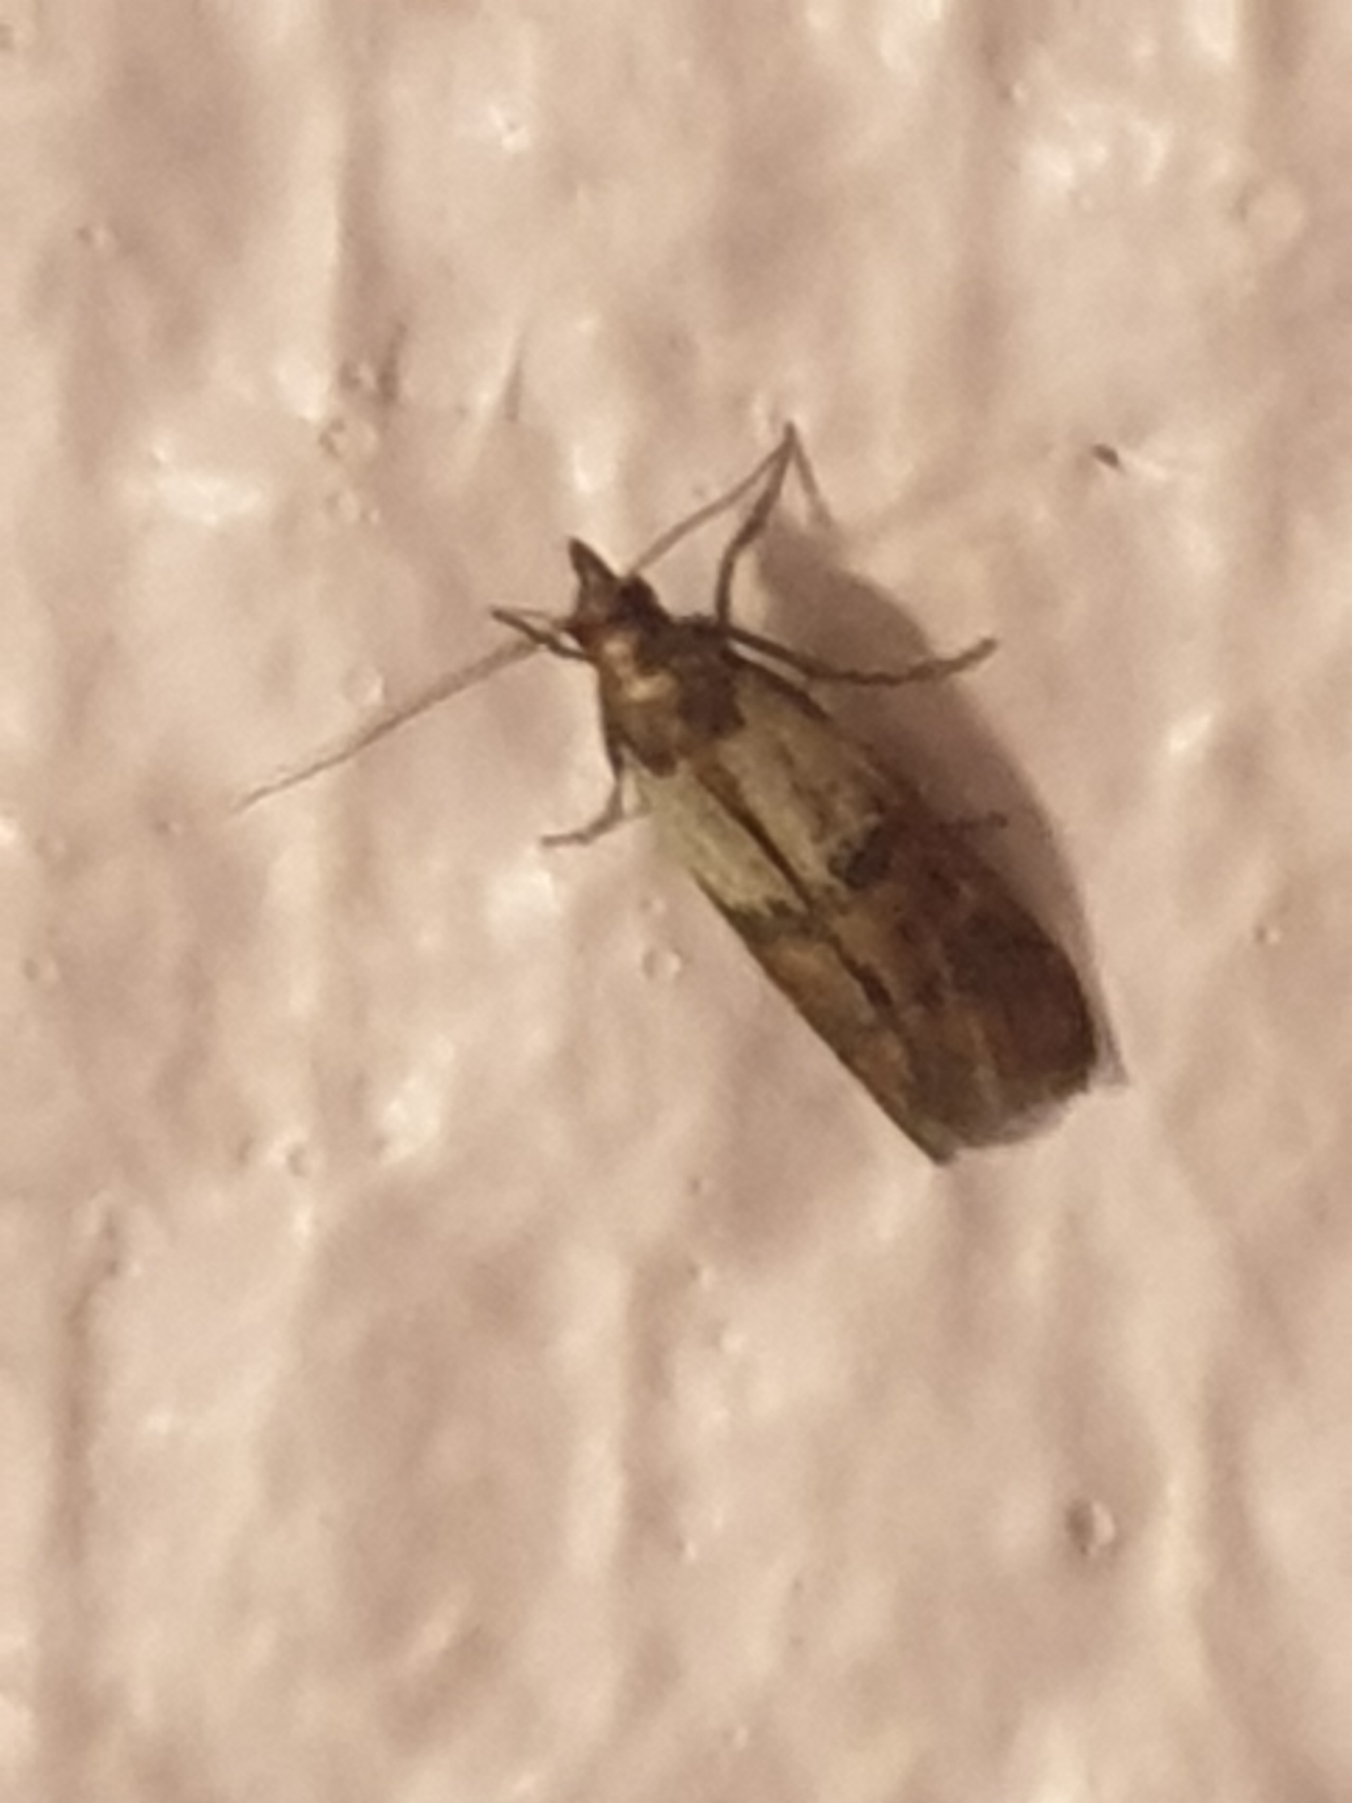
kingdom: Animalia
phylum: Arthropoda
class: Insecta
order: Lepidoptera
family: Pyralidae
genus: Plodia
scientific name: Plodia interpunctella
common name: Tofarvet frømøl
